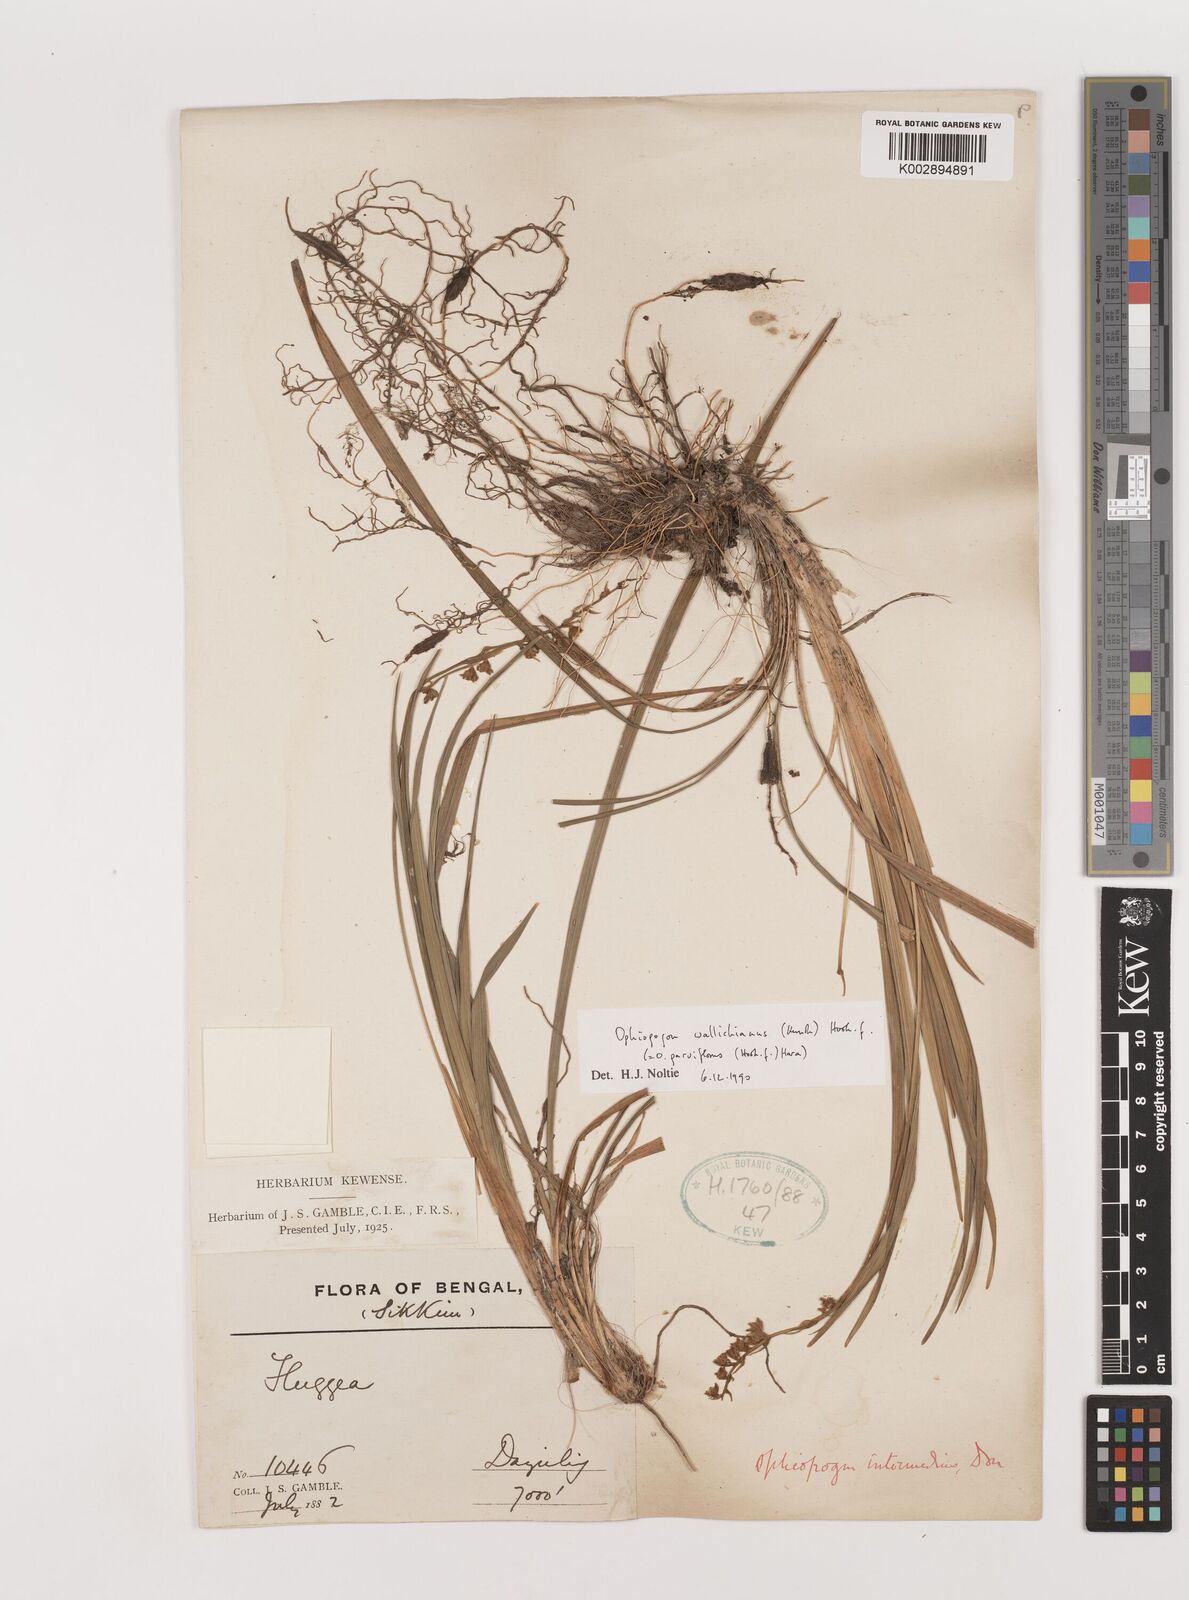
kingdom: Plantae
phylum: Tracheophyta
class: Liliopsida
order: Asparagales
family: Asparagaceae
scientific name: Asparagaceae
